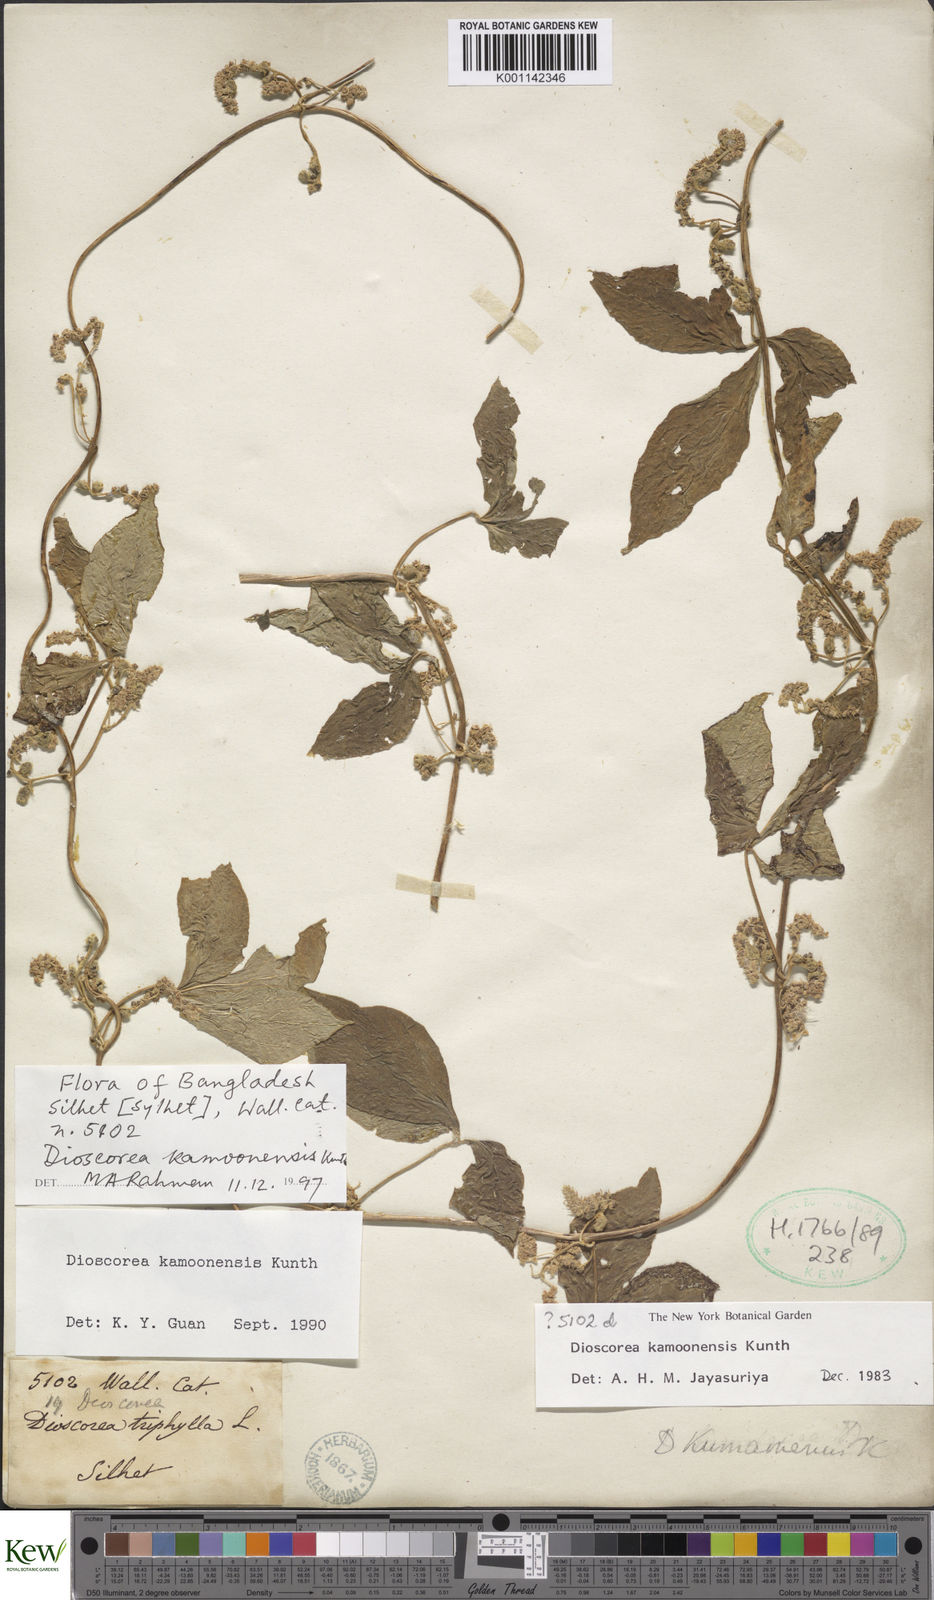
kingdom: Plantae
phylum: Tracheophyta
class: Liliopsida
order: Dioscoreales
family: Dioscoreaceae
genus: Dioscorea
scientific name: Dioscorea kamoonensis
